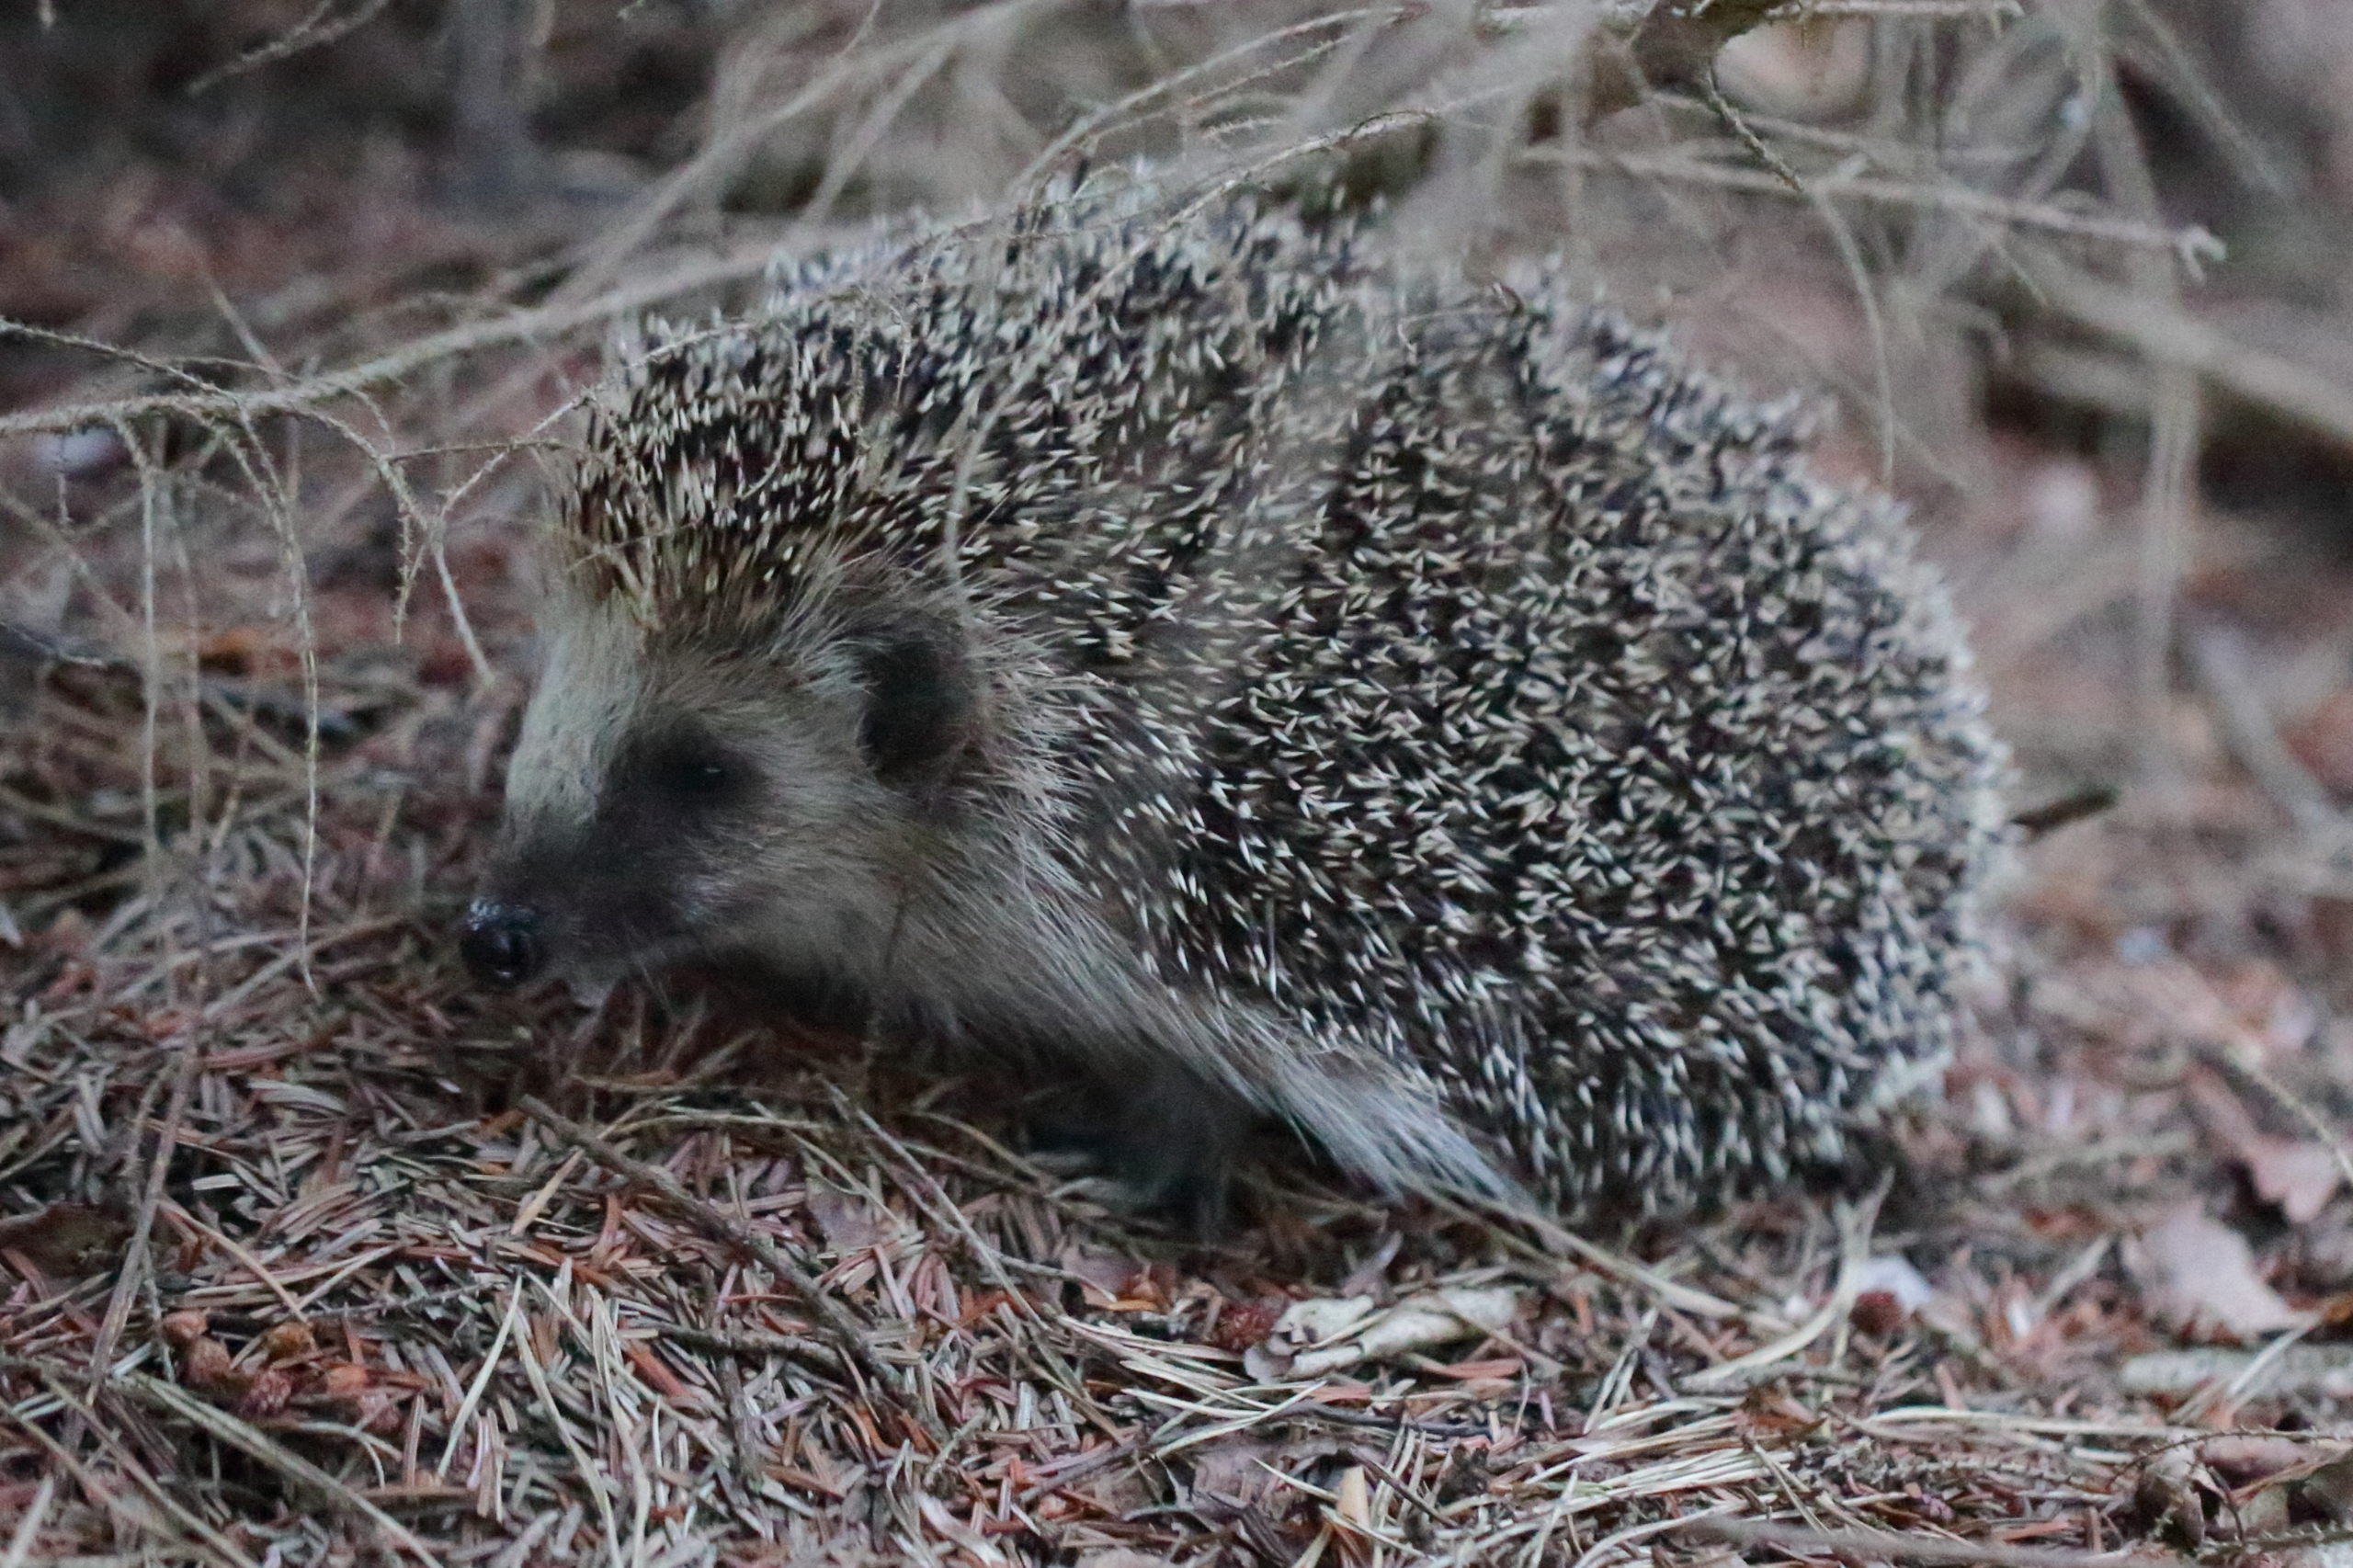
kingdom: Animalia
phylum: Chordata
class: Mammalia
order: Erinaceomorpha
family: Erinaceidae
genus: Erinaceus
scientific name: Erinaceus europaeus
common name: Pindsvin
